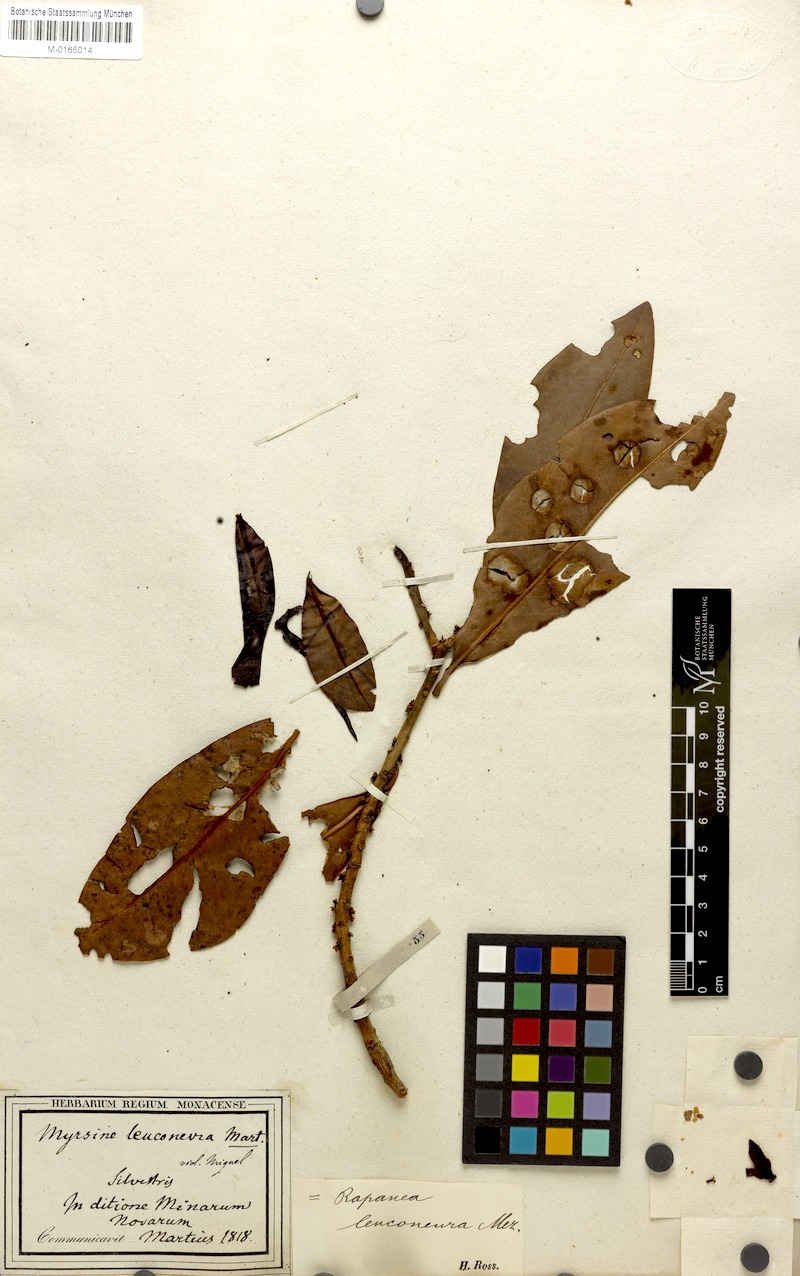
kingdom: Plantae
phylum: Tracheophyta
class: Magnoliopsida
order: Ericales
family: Primulaceae
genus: Myrsine
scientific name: Myrsine leuconeura
